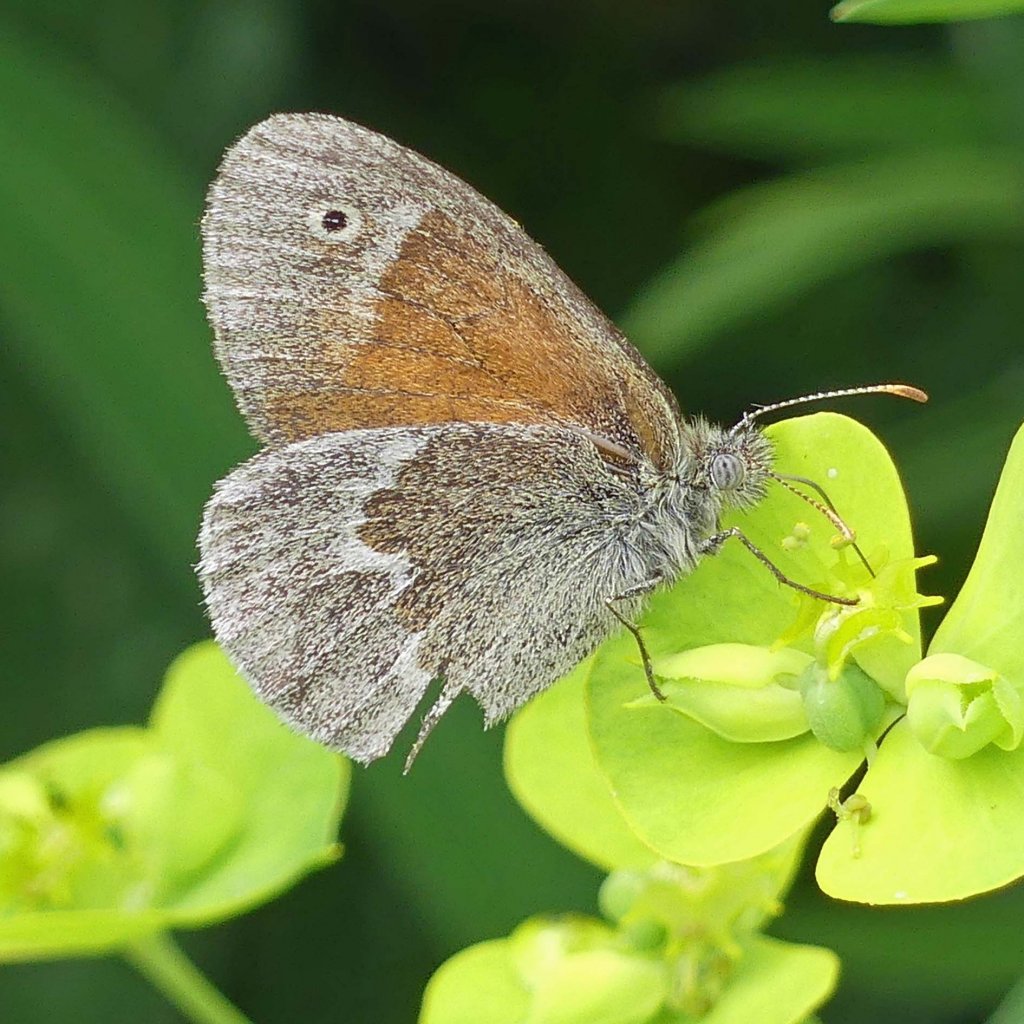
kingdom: Animalia
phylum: Arthropoda
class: Insecta
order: Lepidoptera
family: Nymphalidae
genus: Coenonympha
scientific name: Coenonympha tullia
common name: Large Heath
